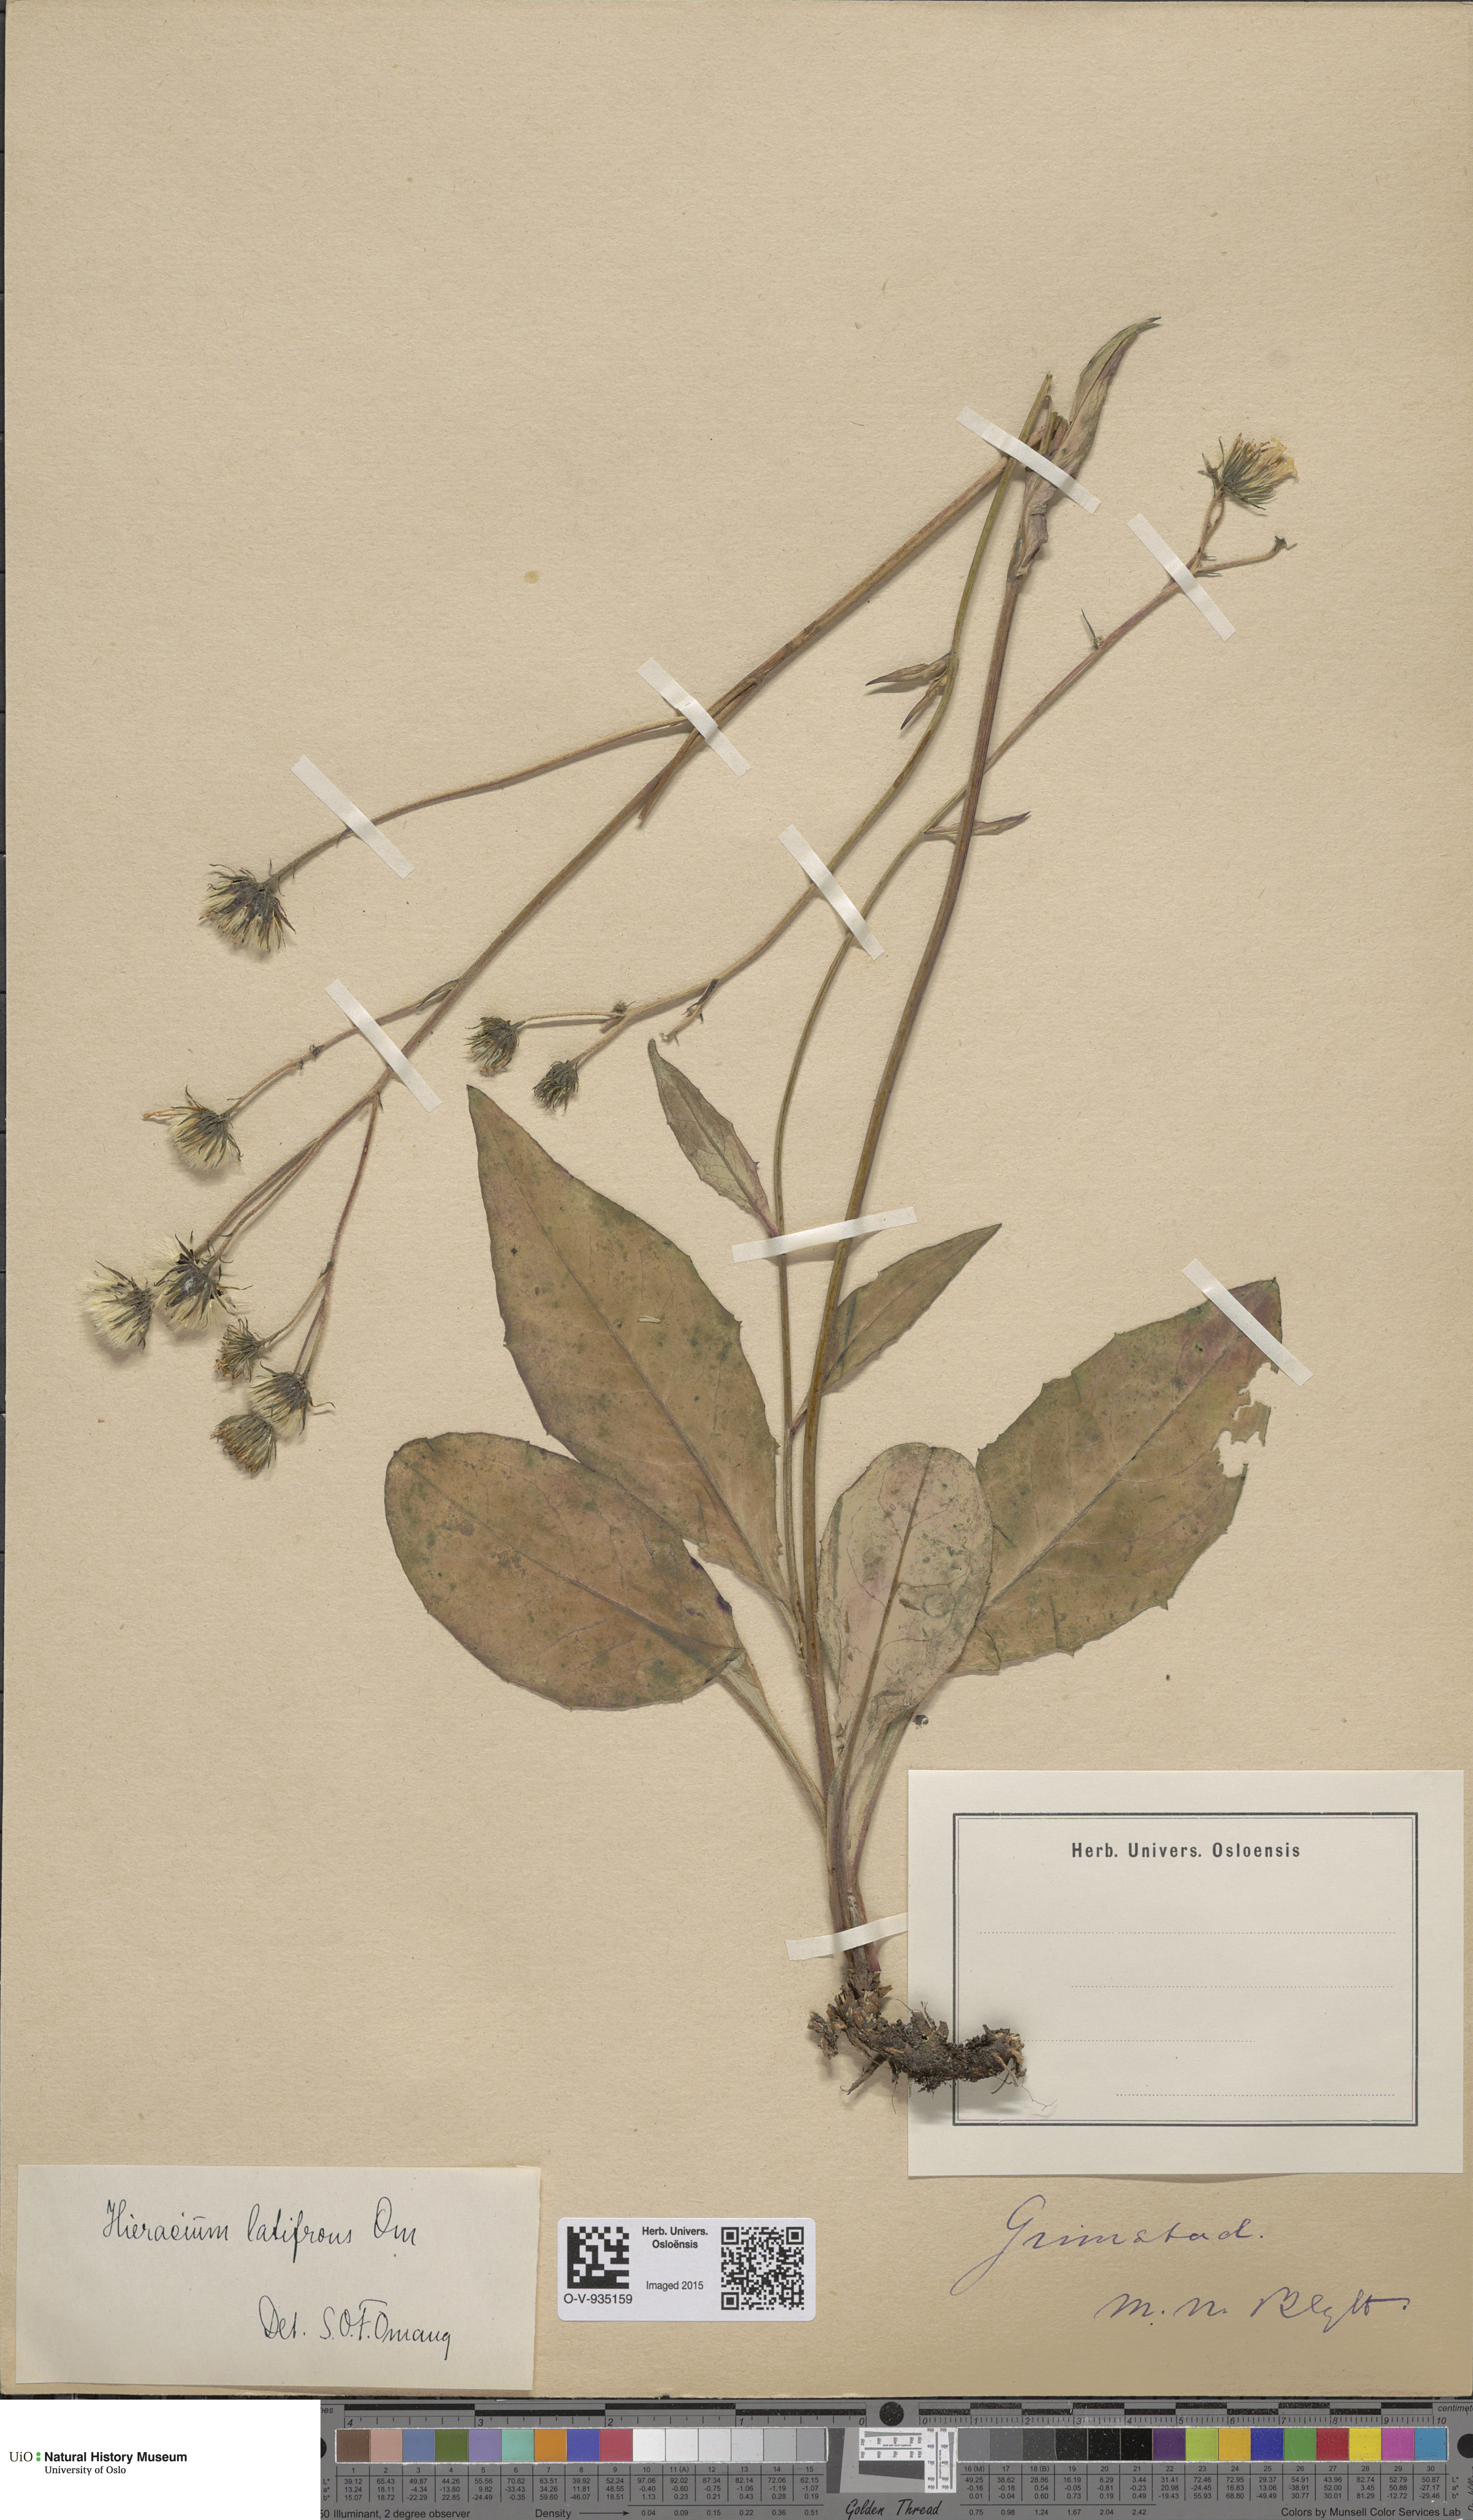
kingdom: Plantae
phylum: Tracheophyta
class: Magnoliopsida
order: Asterales
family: Asteraceae
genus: Hieracium
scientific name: Hieracium saxifragum
